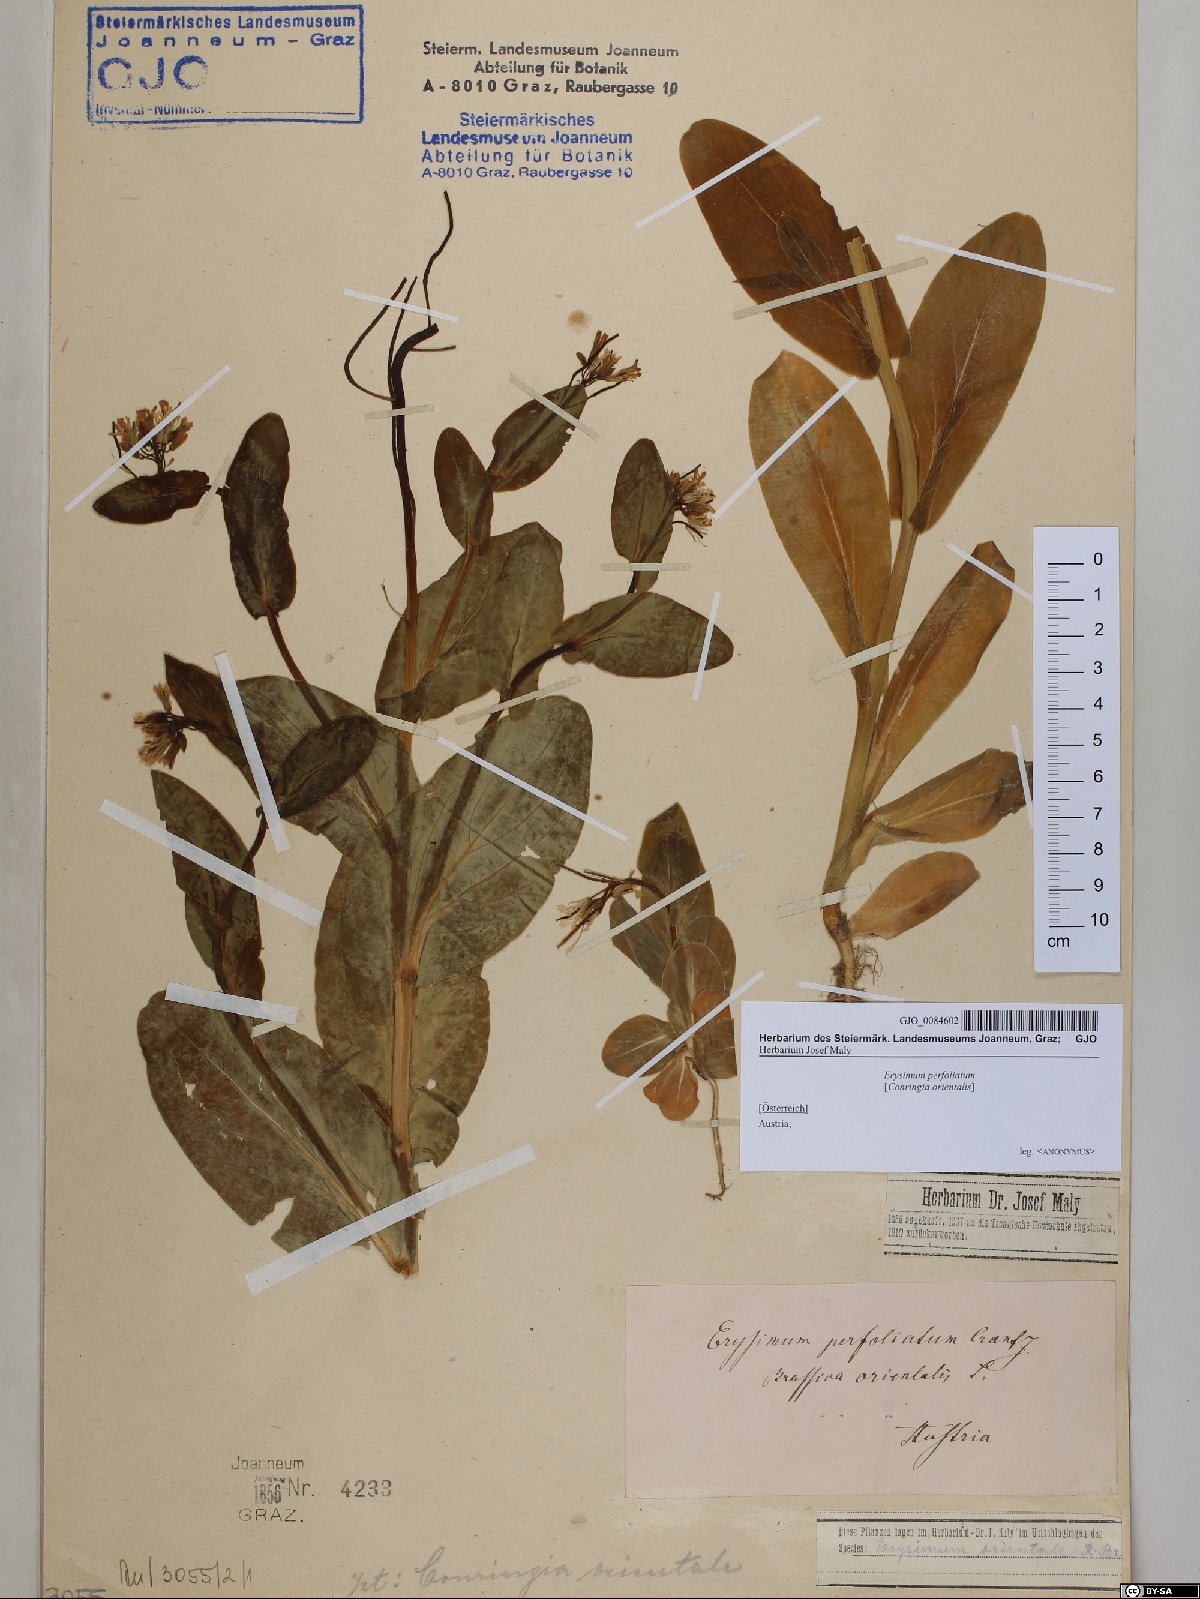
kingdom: Plantae
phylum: Tracheophyta
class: Magnoliopsida
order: Brassicales
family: Brassicaceae
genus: Conringia
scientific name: Conringia orientalis
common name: Hare's ear mustard
